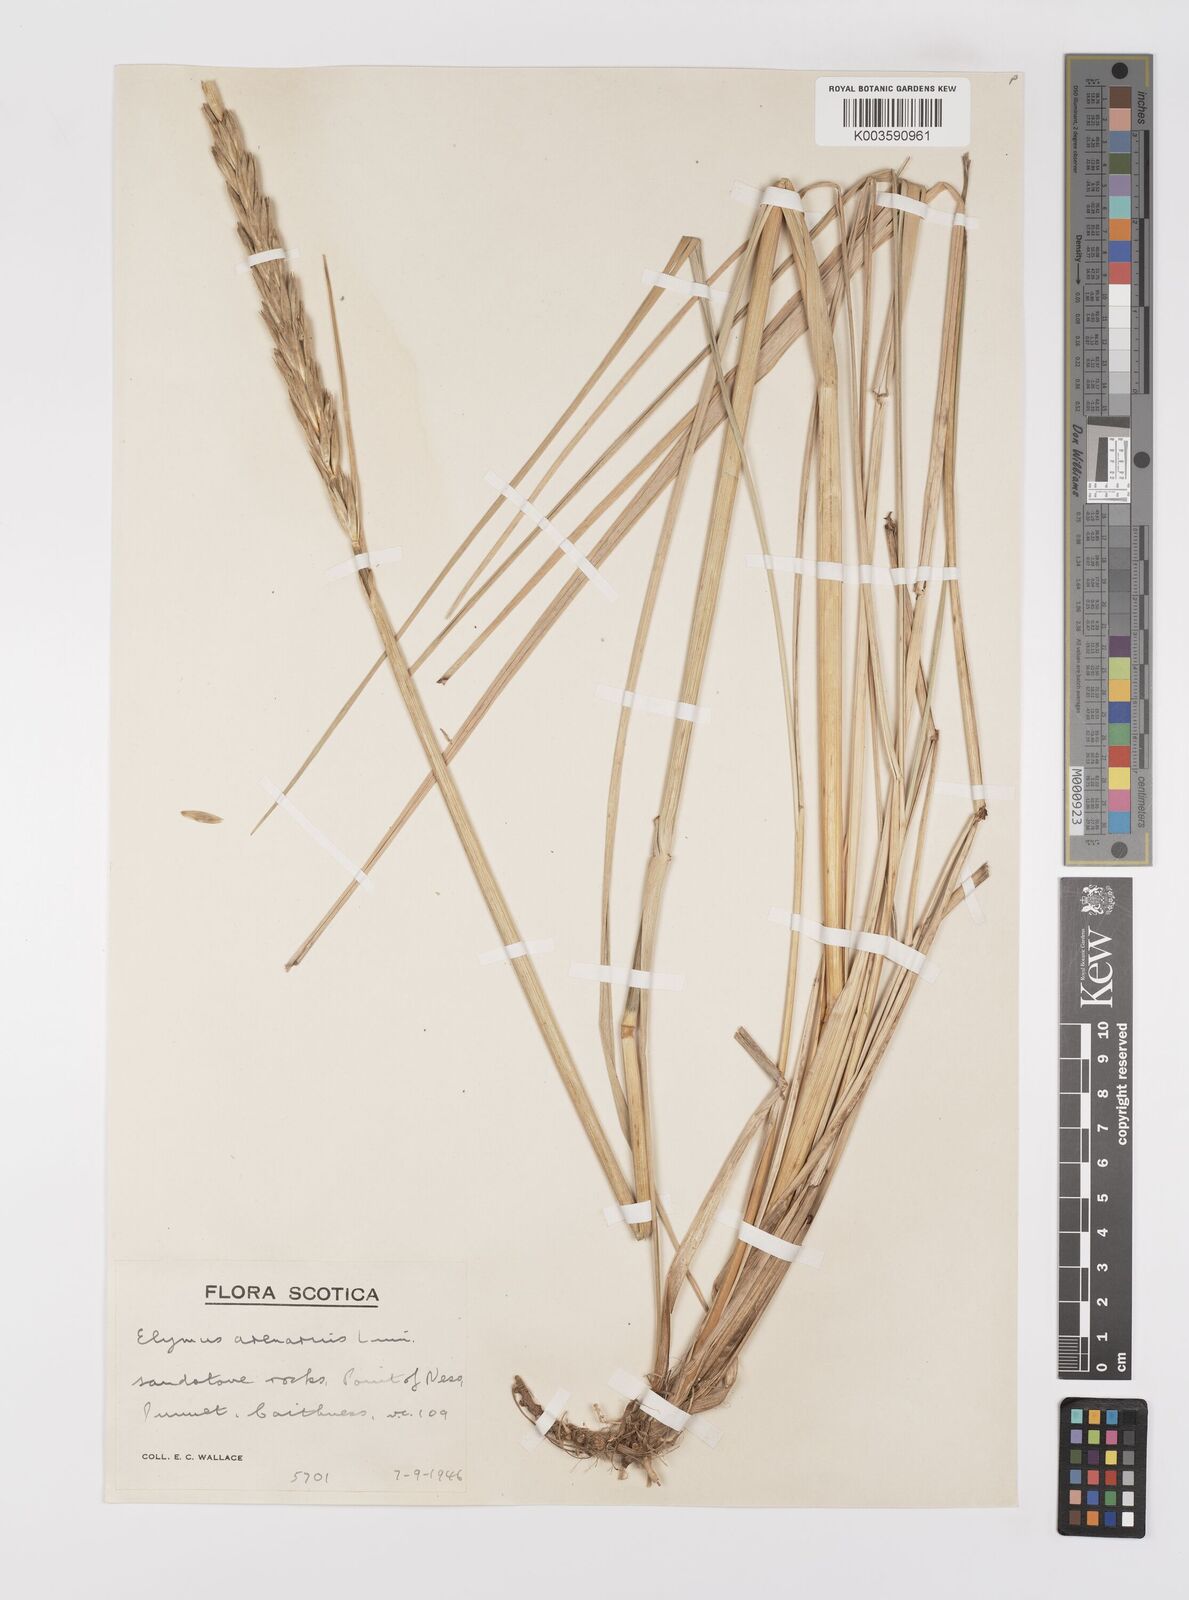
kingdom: Plantae
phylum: Tracheophyta
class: Liliopsida
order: Poales
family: Poaceae
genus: Leymus
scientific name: Leymus arenarius
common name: Lyme-grass
